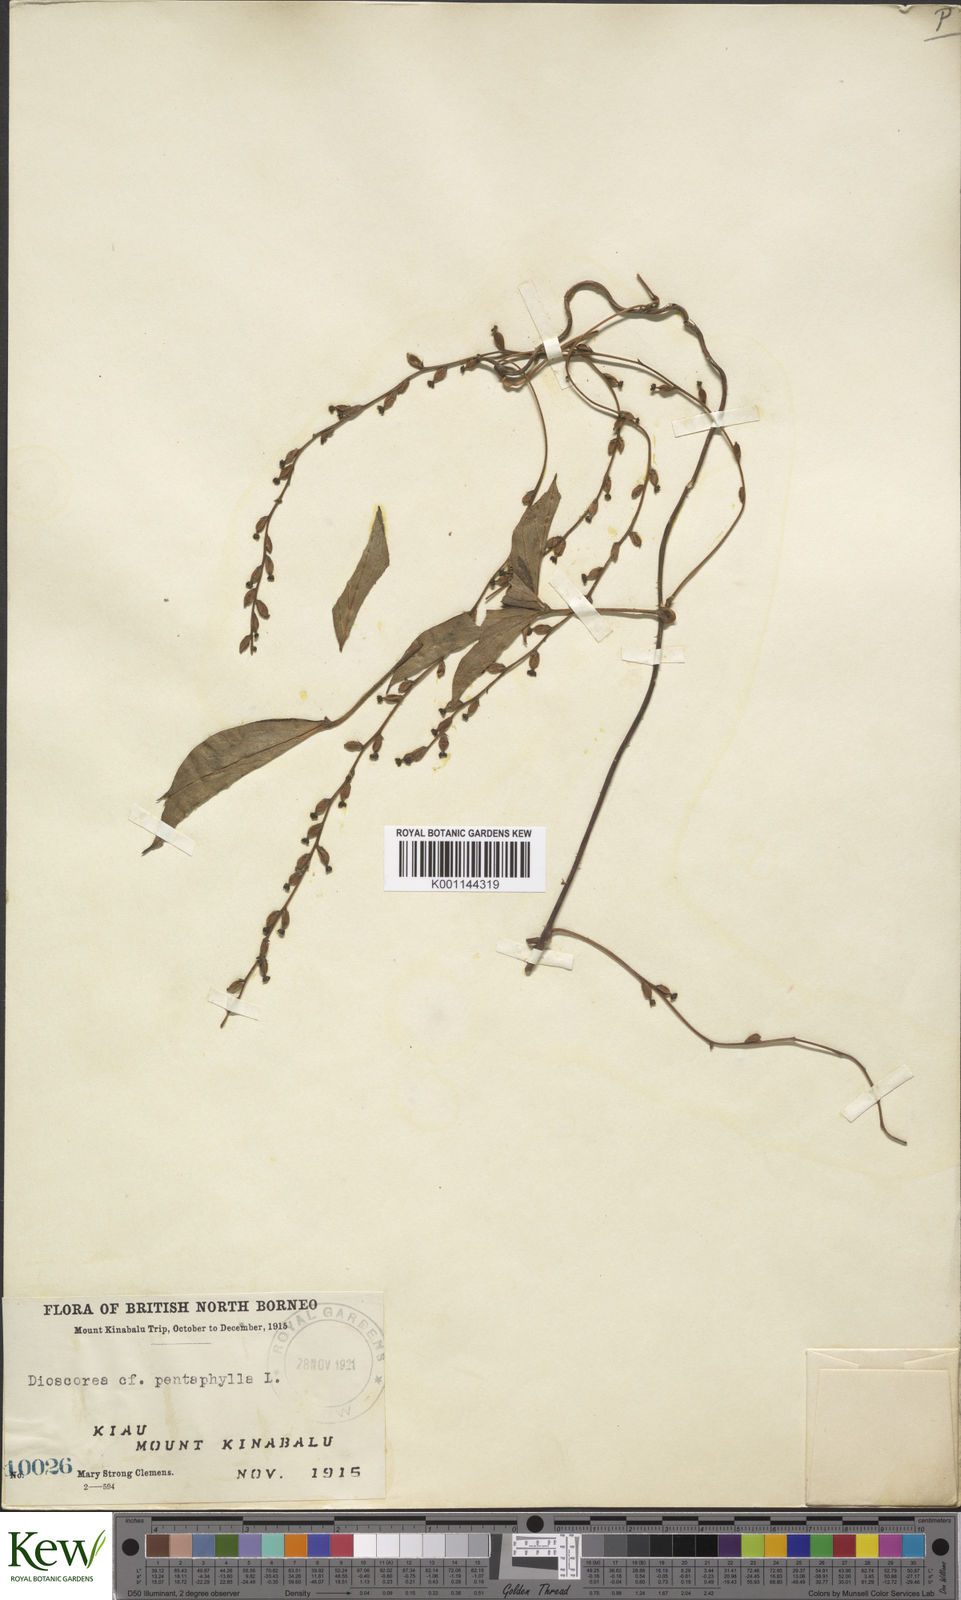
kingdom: Plantae
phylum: Tracheophyta
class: Liliopsida
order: Dioscoreales
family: Dioscoreaceae
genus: Dioscorea
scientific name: Dioscorea pentaphylla
